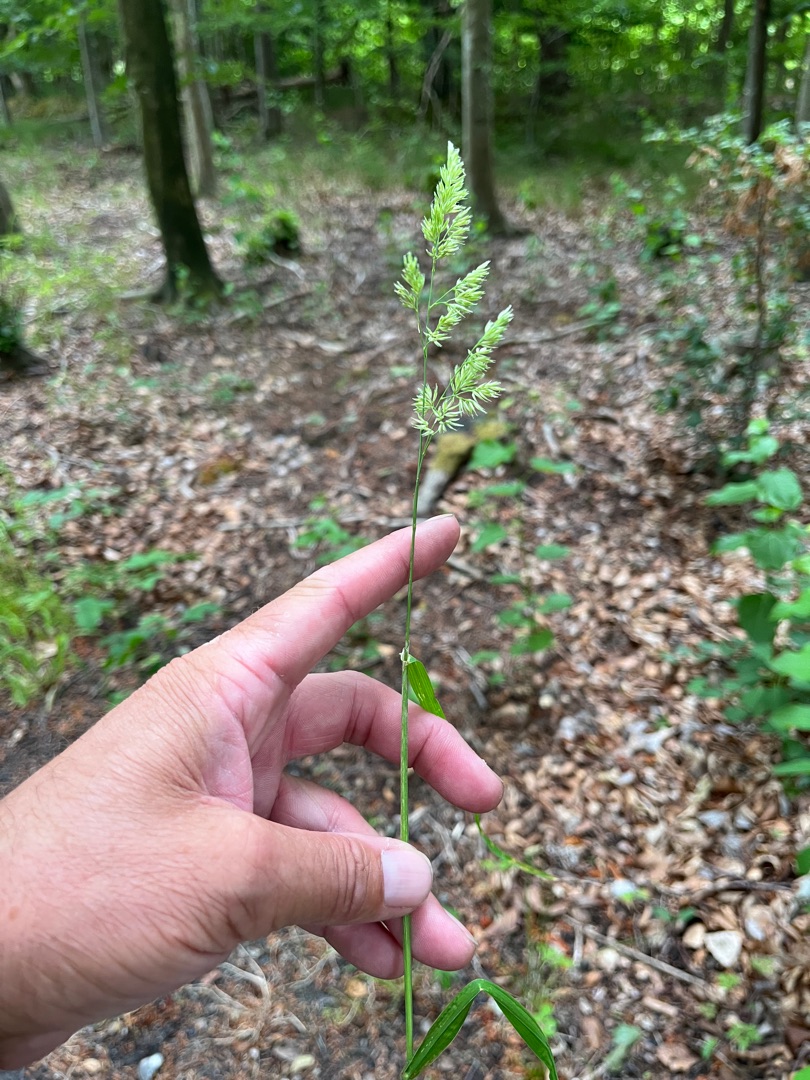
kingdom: Plantae
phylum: Tracheophyta
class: Liliopsida
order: Poales
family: Poaceae
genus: Dactylis
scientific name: Dactylis glomerata
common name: Skov-hundegræs
